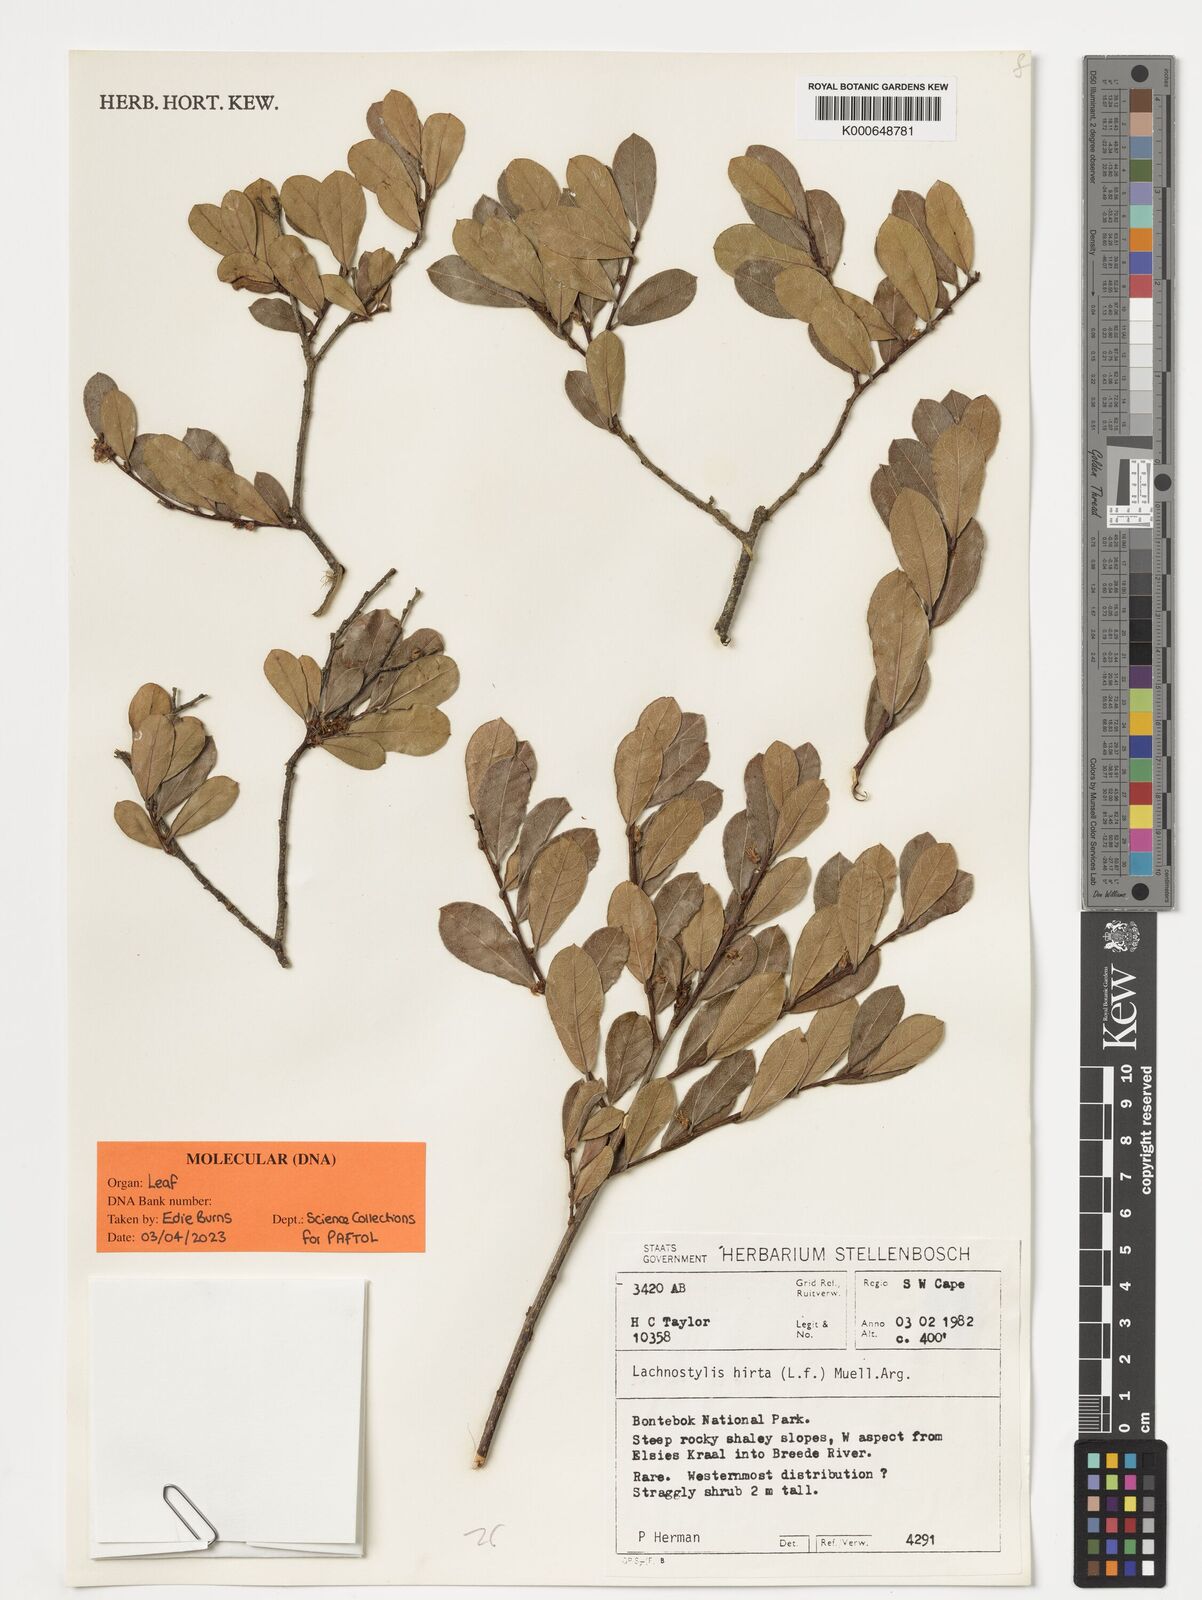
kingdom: Plantae
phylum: Tracheophyta
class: Magnoliopsida
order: Malpighiales
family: Phyllanthaceae
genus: Lachnostylis
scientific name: Lachnostylis hirta
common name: Coalwood
